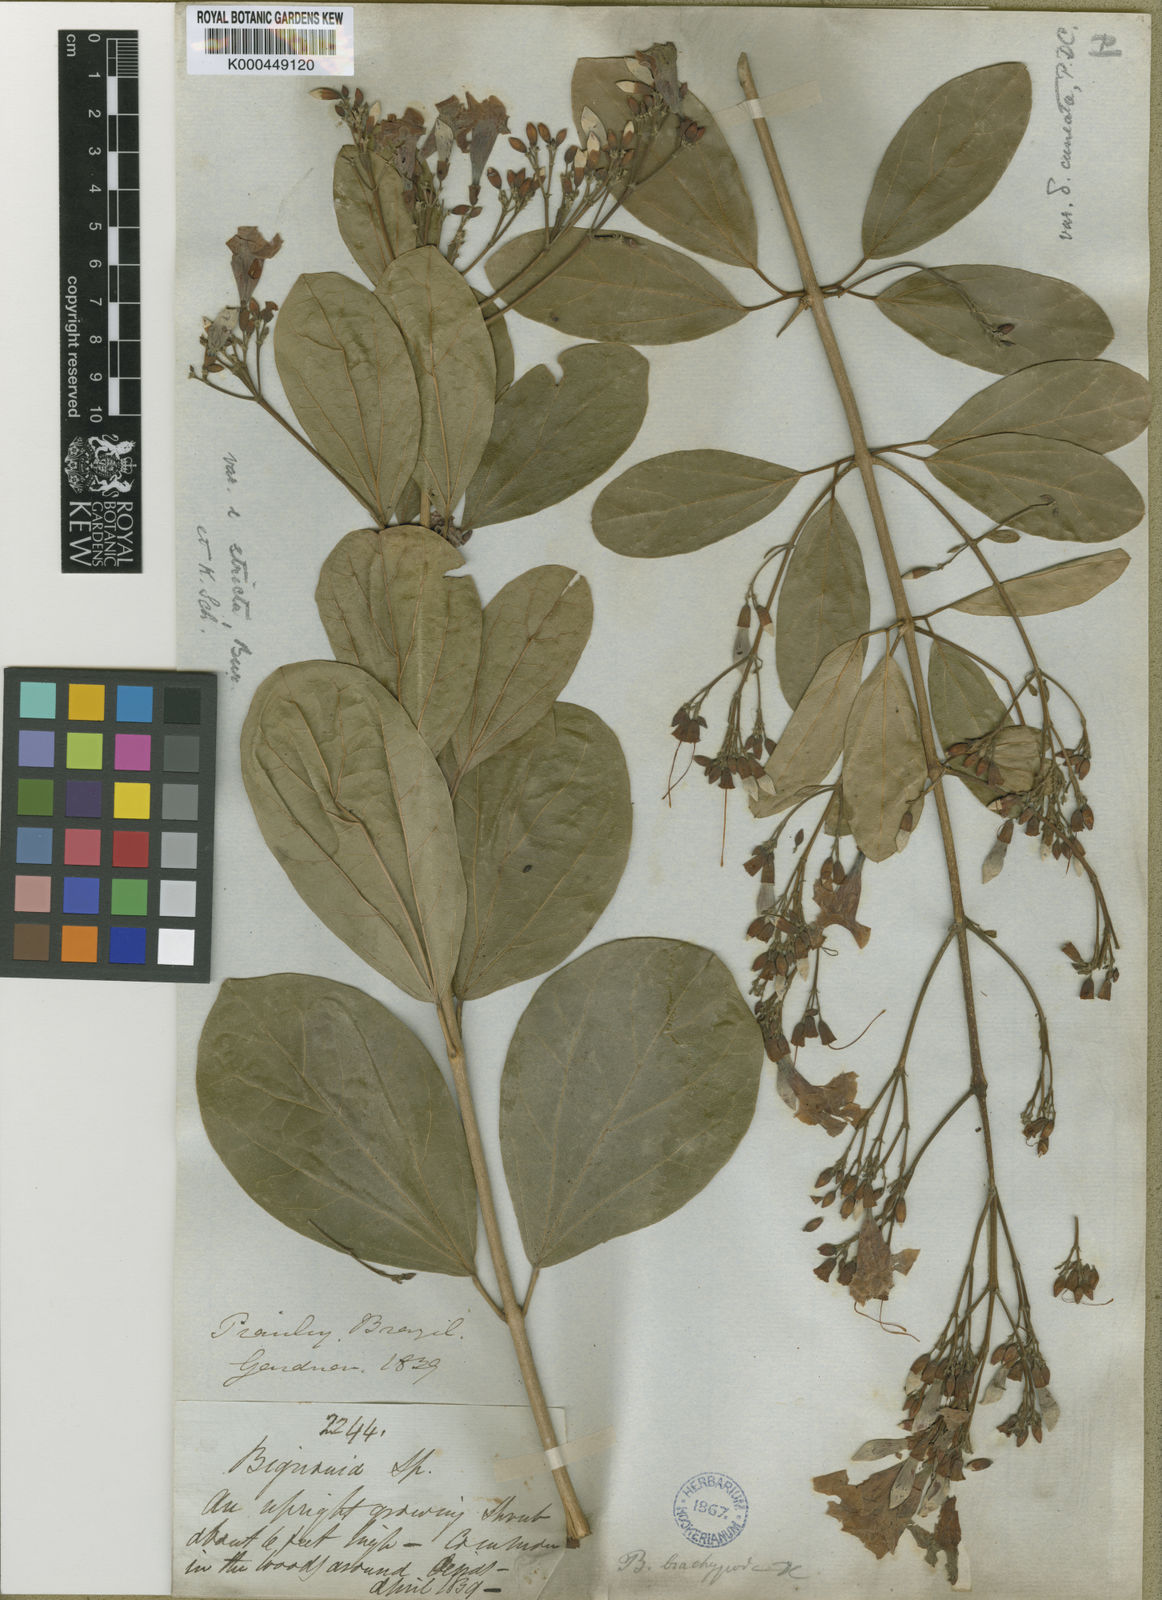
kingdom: Plantae
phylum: Tracheophyta
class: Magnoliopsida
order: Lamiales
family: Bignoniaceae
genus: Fridericia
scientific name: Fridericia platyphylla
